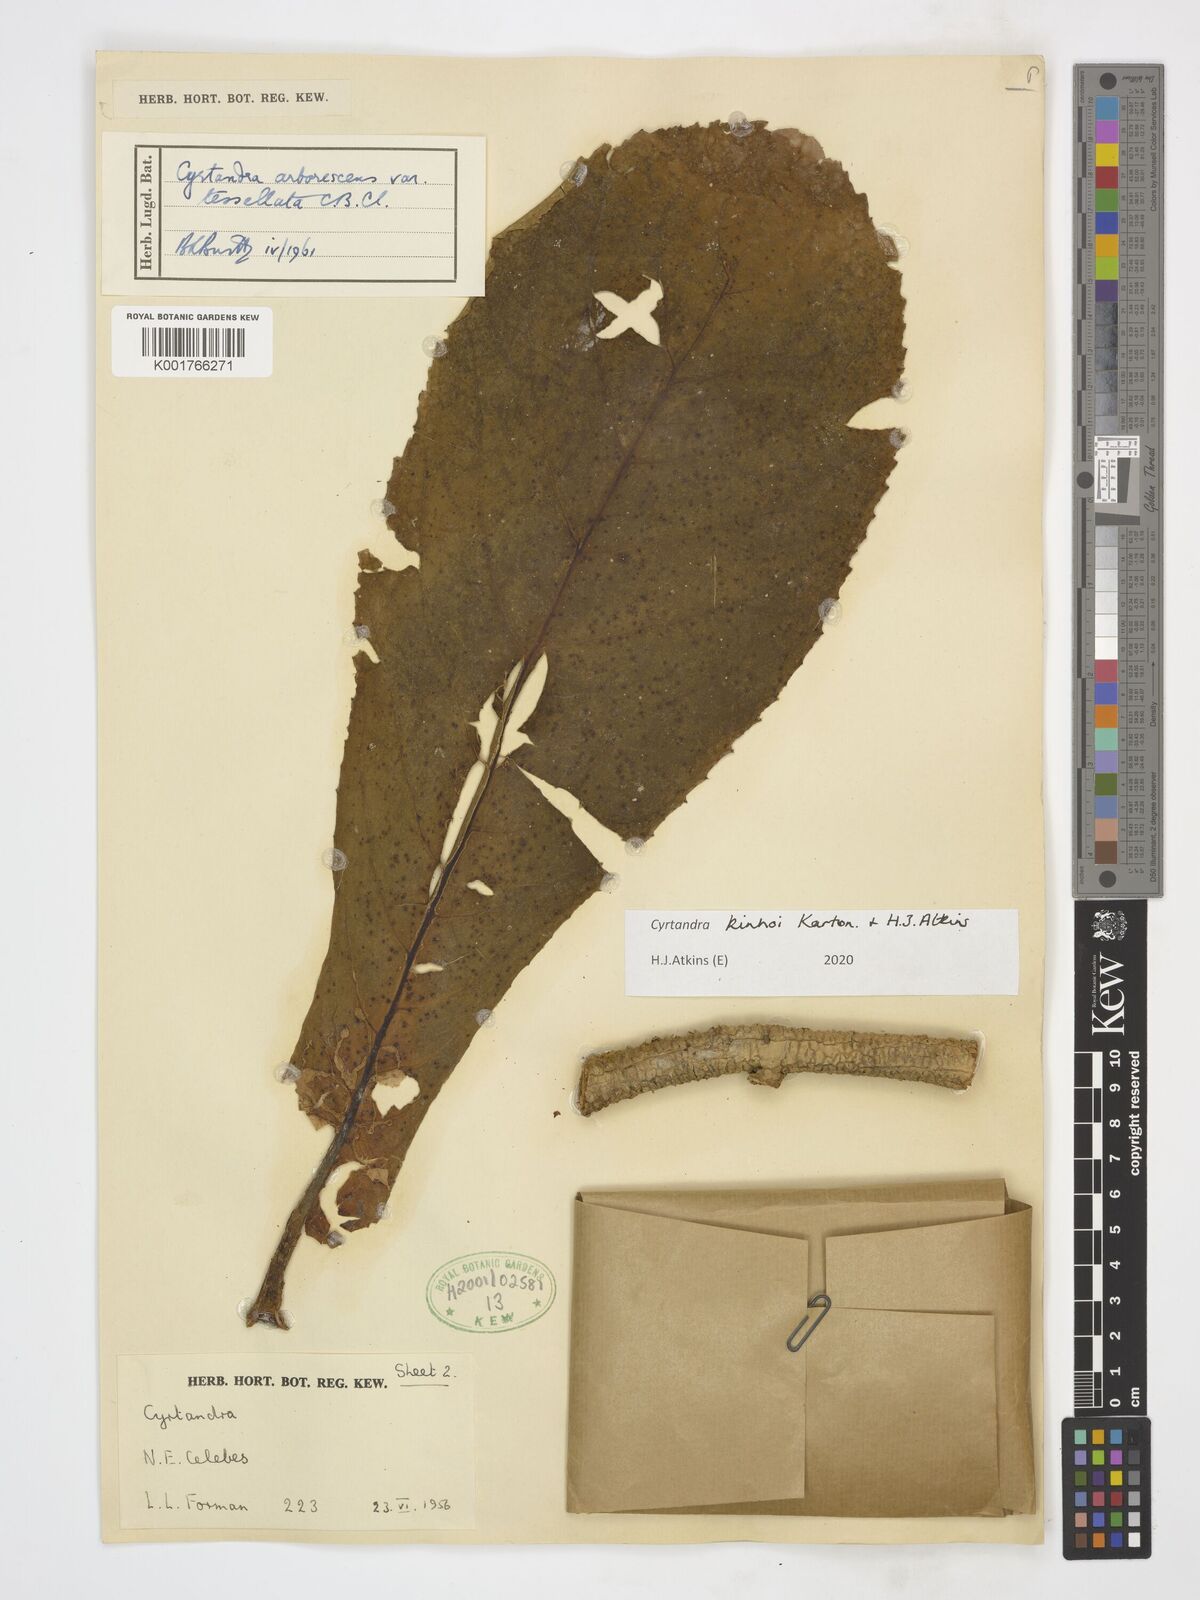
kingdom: Plantae
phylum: Tracheophyta
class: Magnoliopsida
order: Lamiales
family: Gesneriaceae
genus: Cyrtandra
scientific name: Cyrtandra kinhoi
